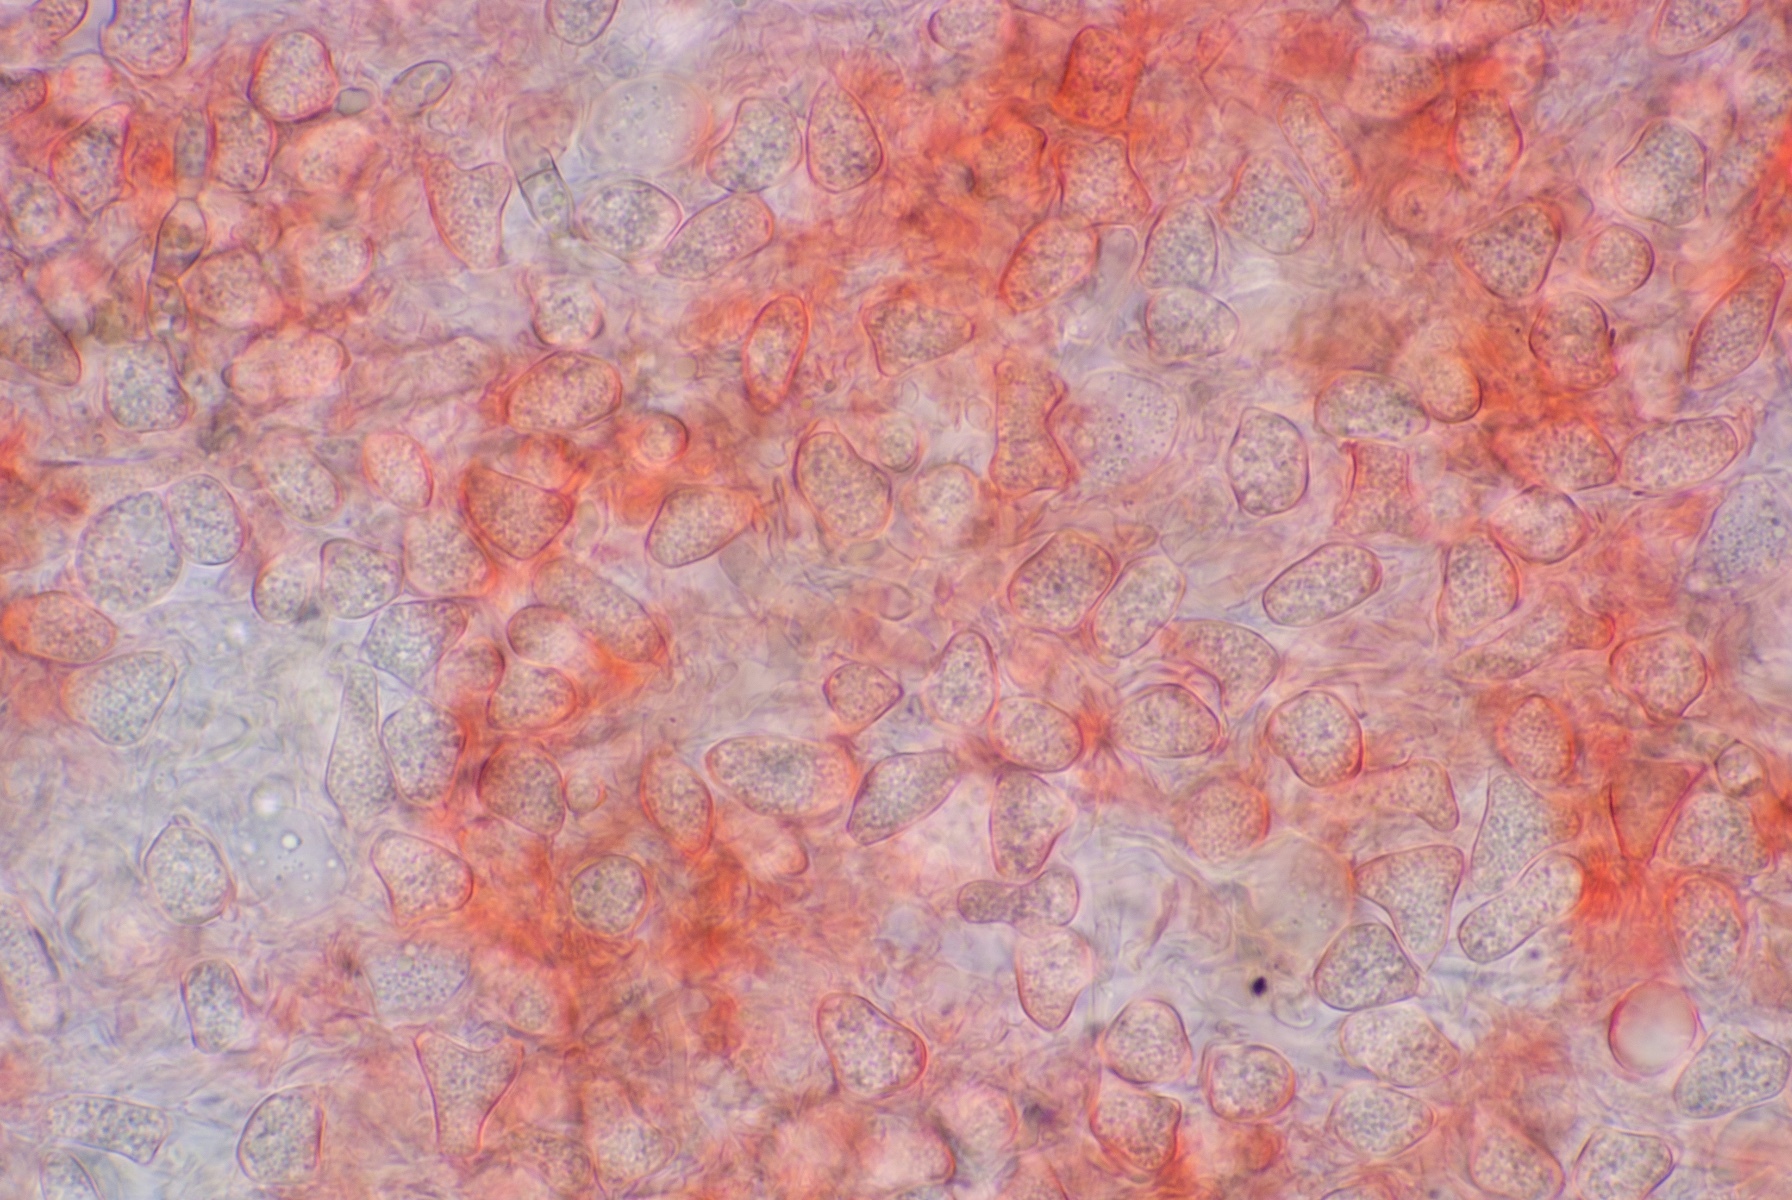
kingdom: Fungi
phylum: Ascomycota
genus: Oncopodiella
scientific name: Oncopodiella trigonella
